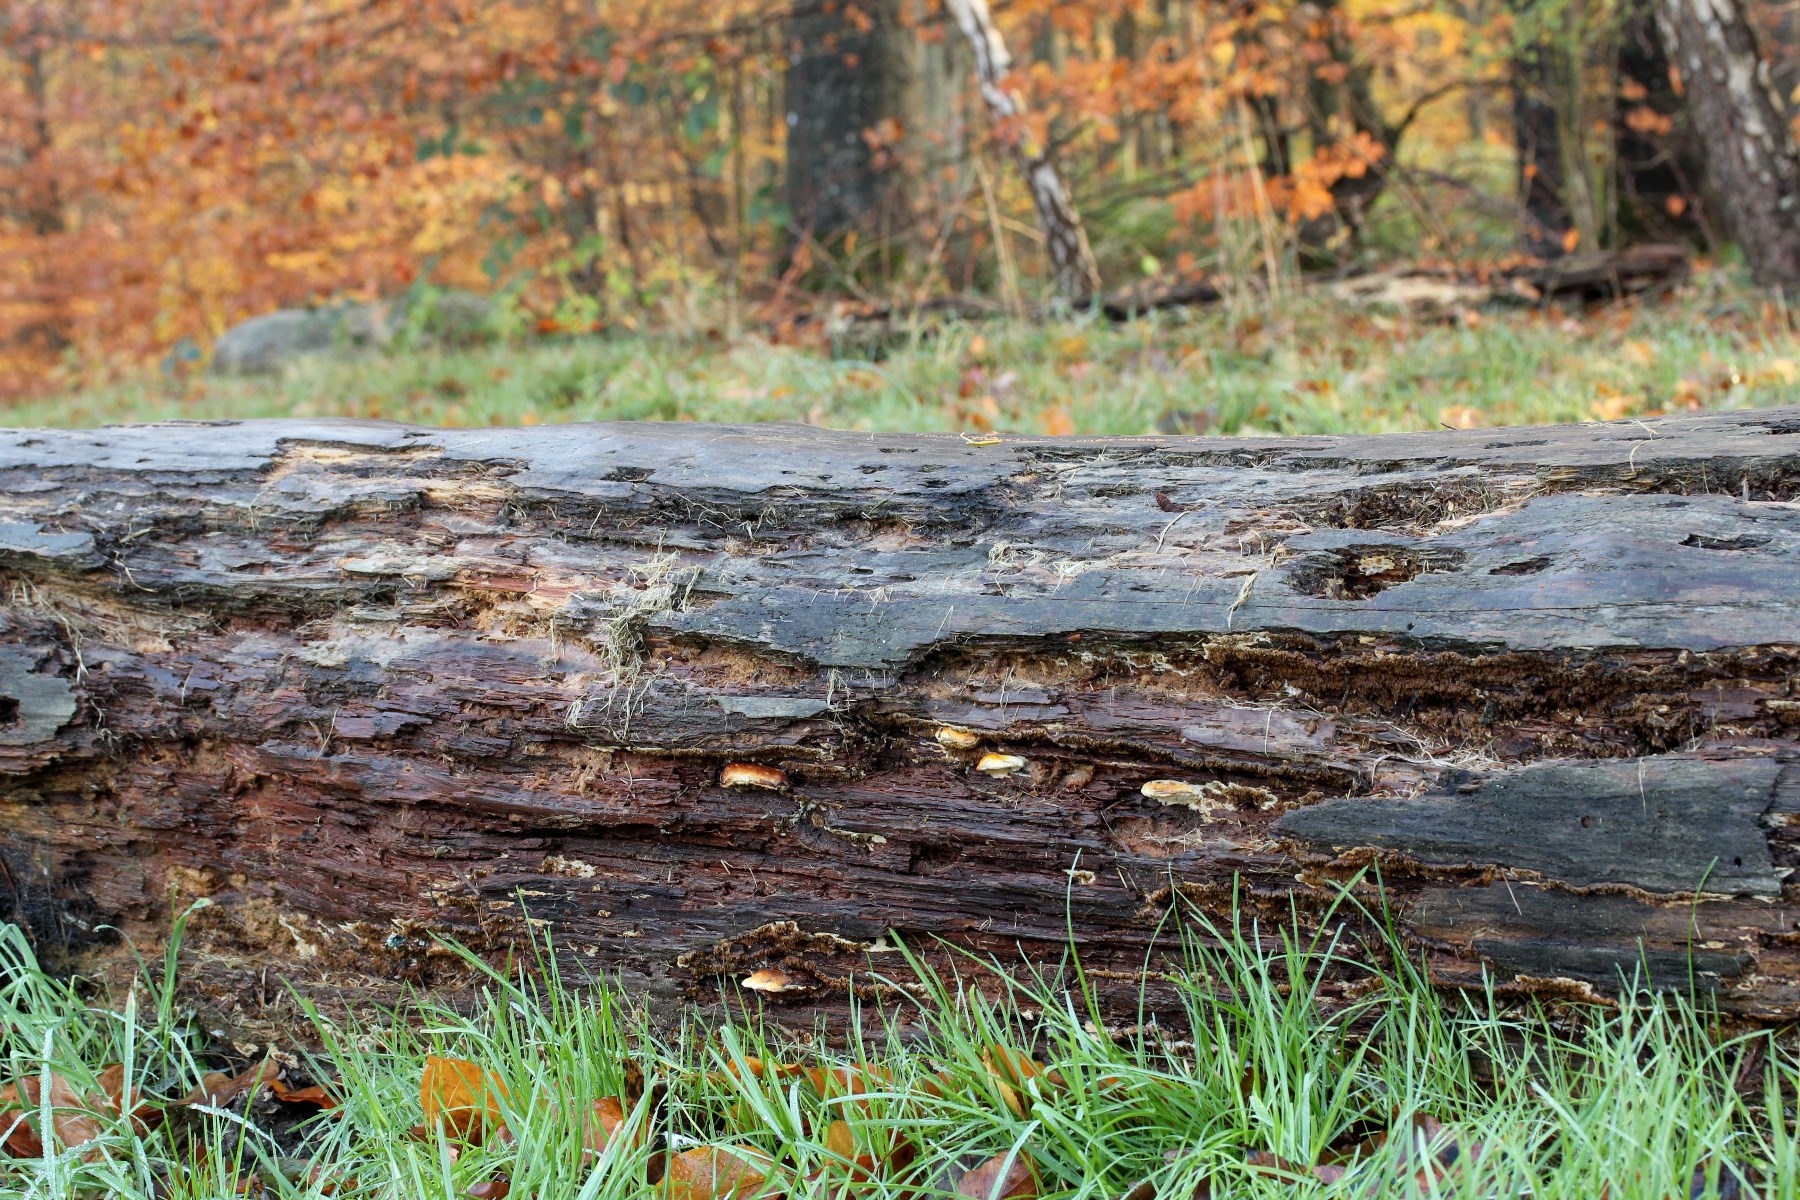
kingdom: Fungi
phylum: Basidiomycota
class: Agaricomycetes
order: Polyporales
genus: Fuscopostia
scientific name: Fuscopostia fragilis
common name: brunende kødporesvamp
